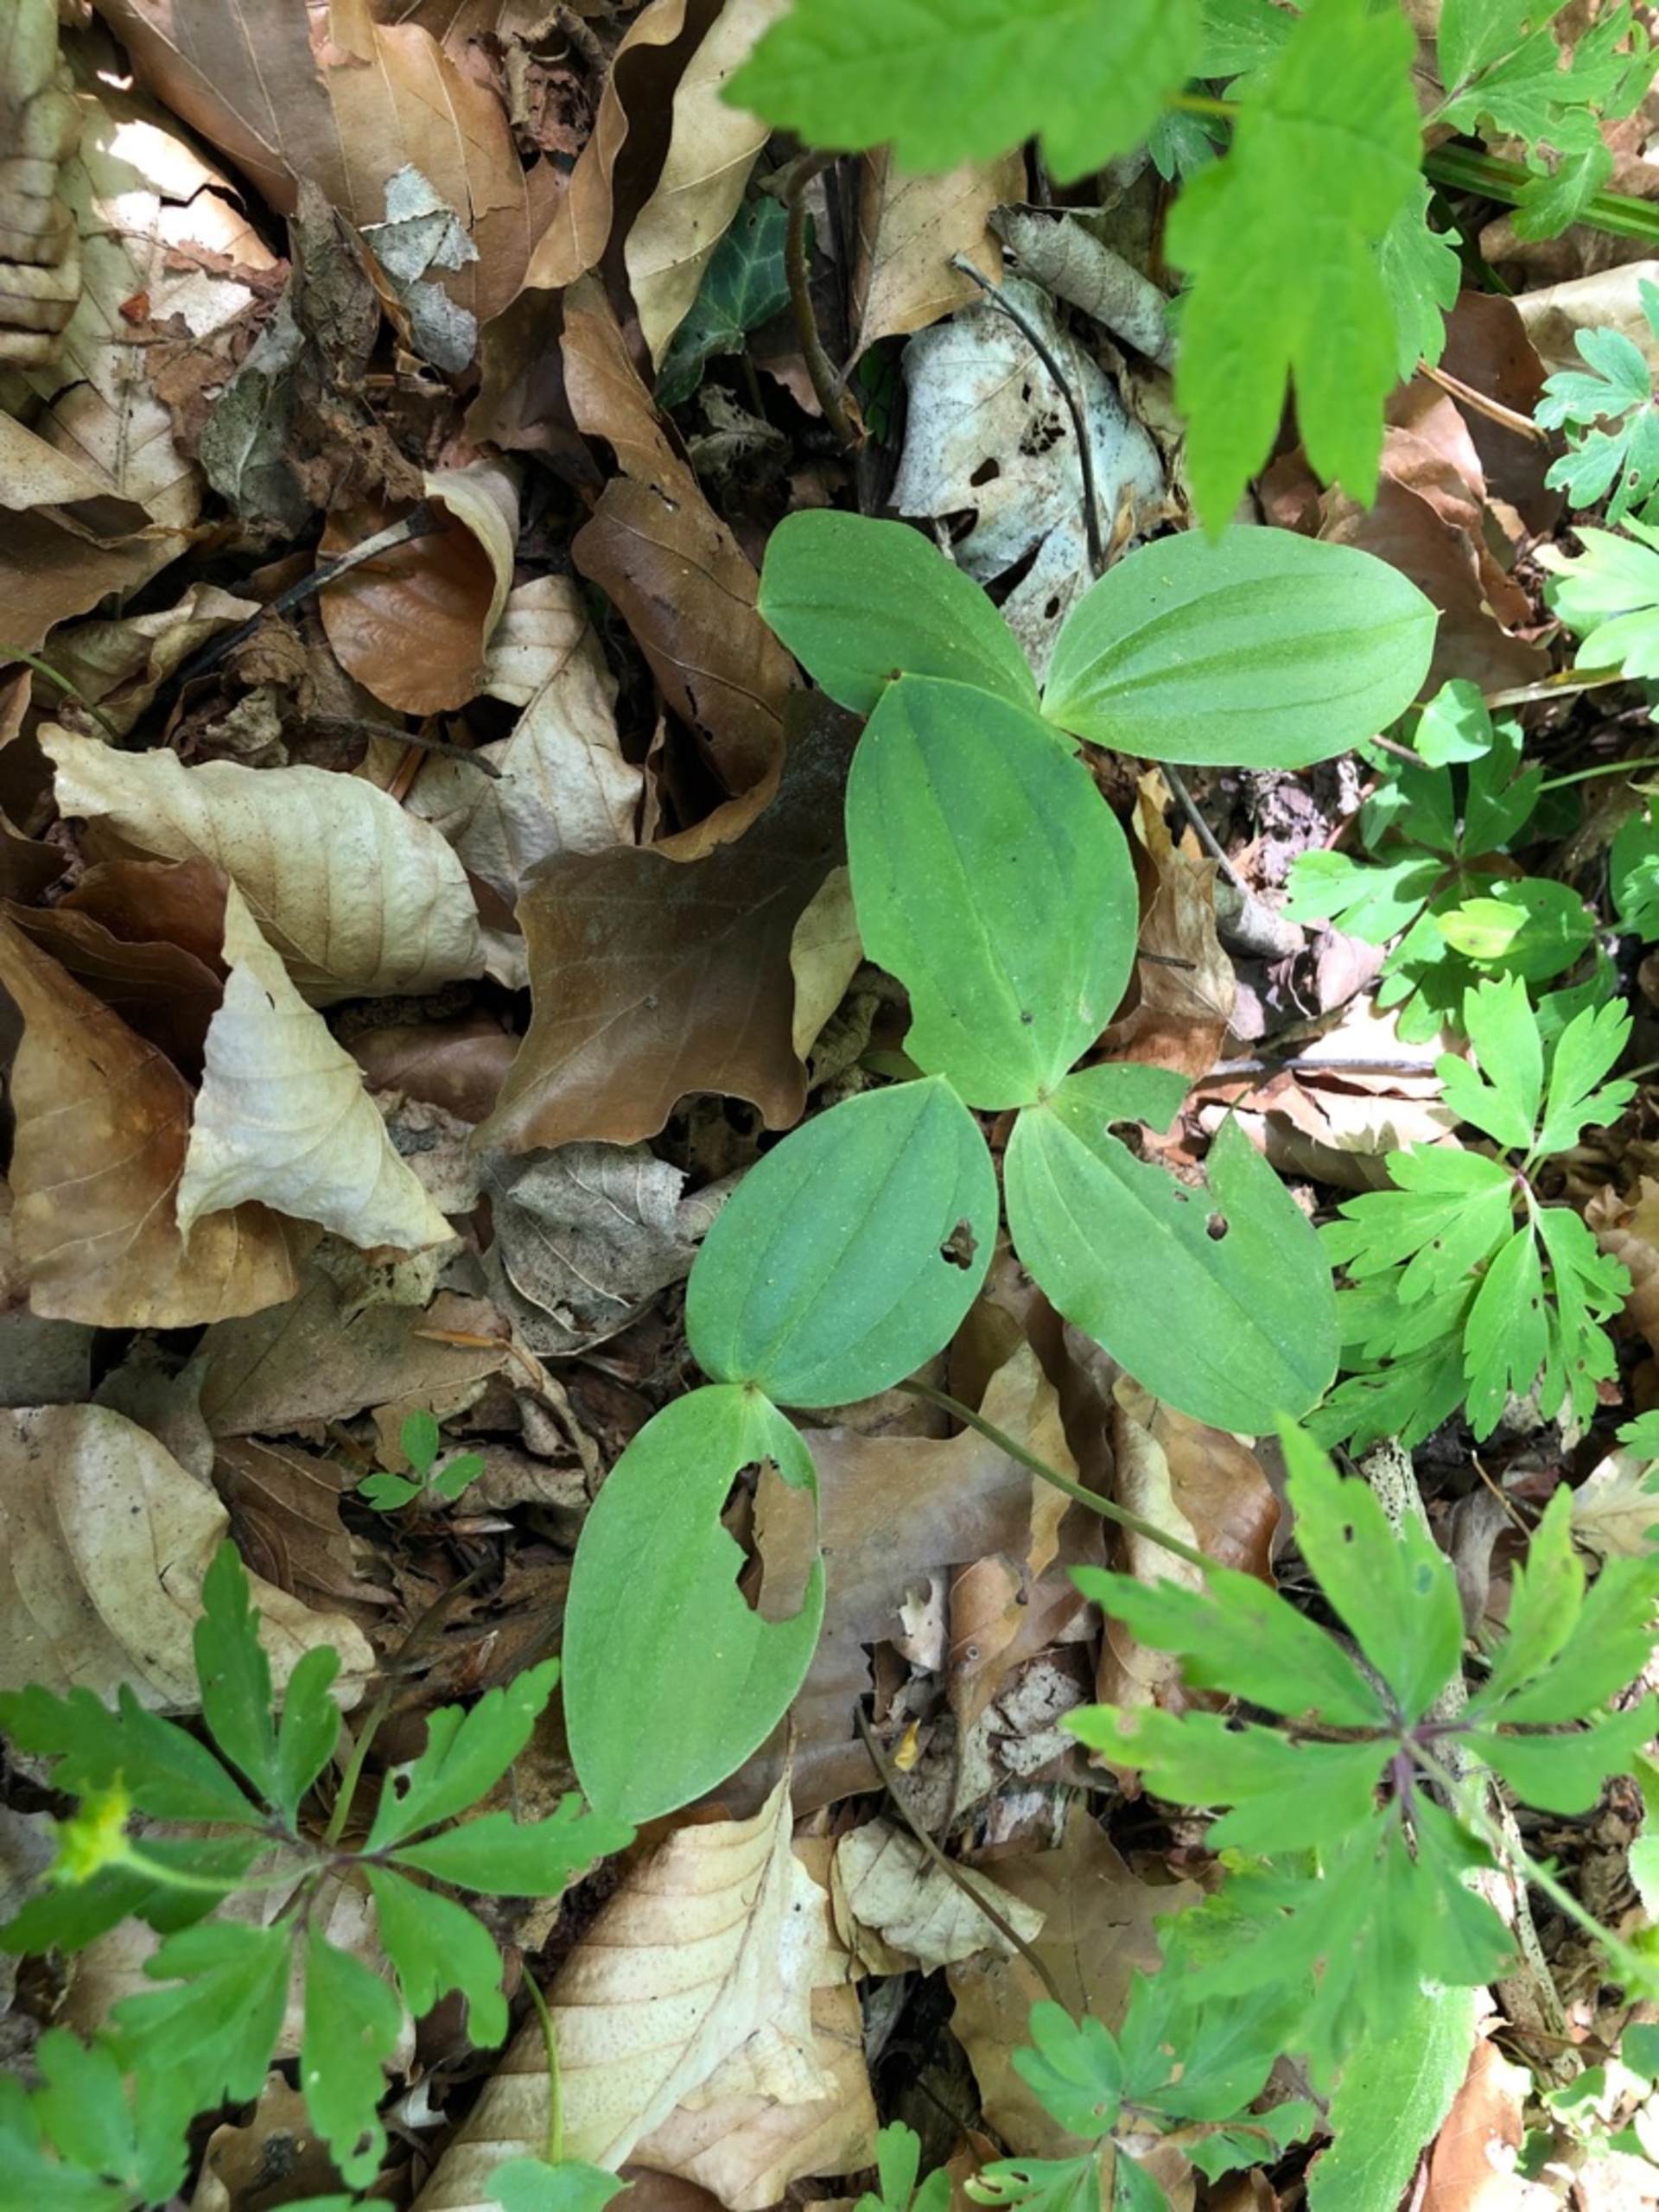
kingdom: Plantae
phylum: Tracheophyta
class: Liliopsida
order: Asparagales
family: Orchidaceae
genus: Neottia
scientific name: Neottia ovata
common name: Ægbladet fliglæbe
